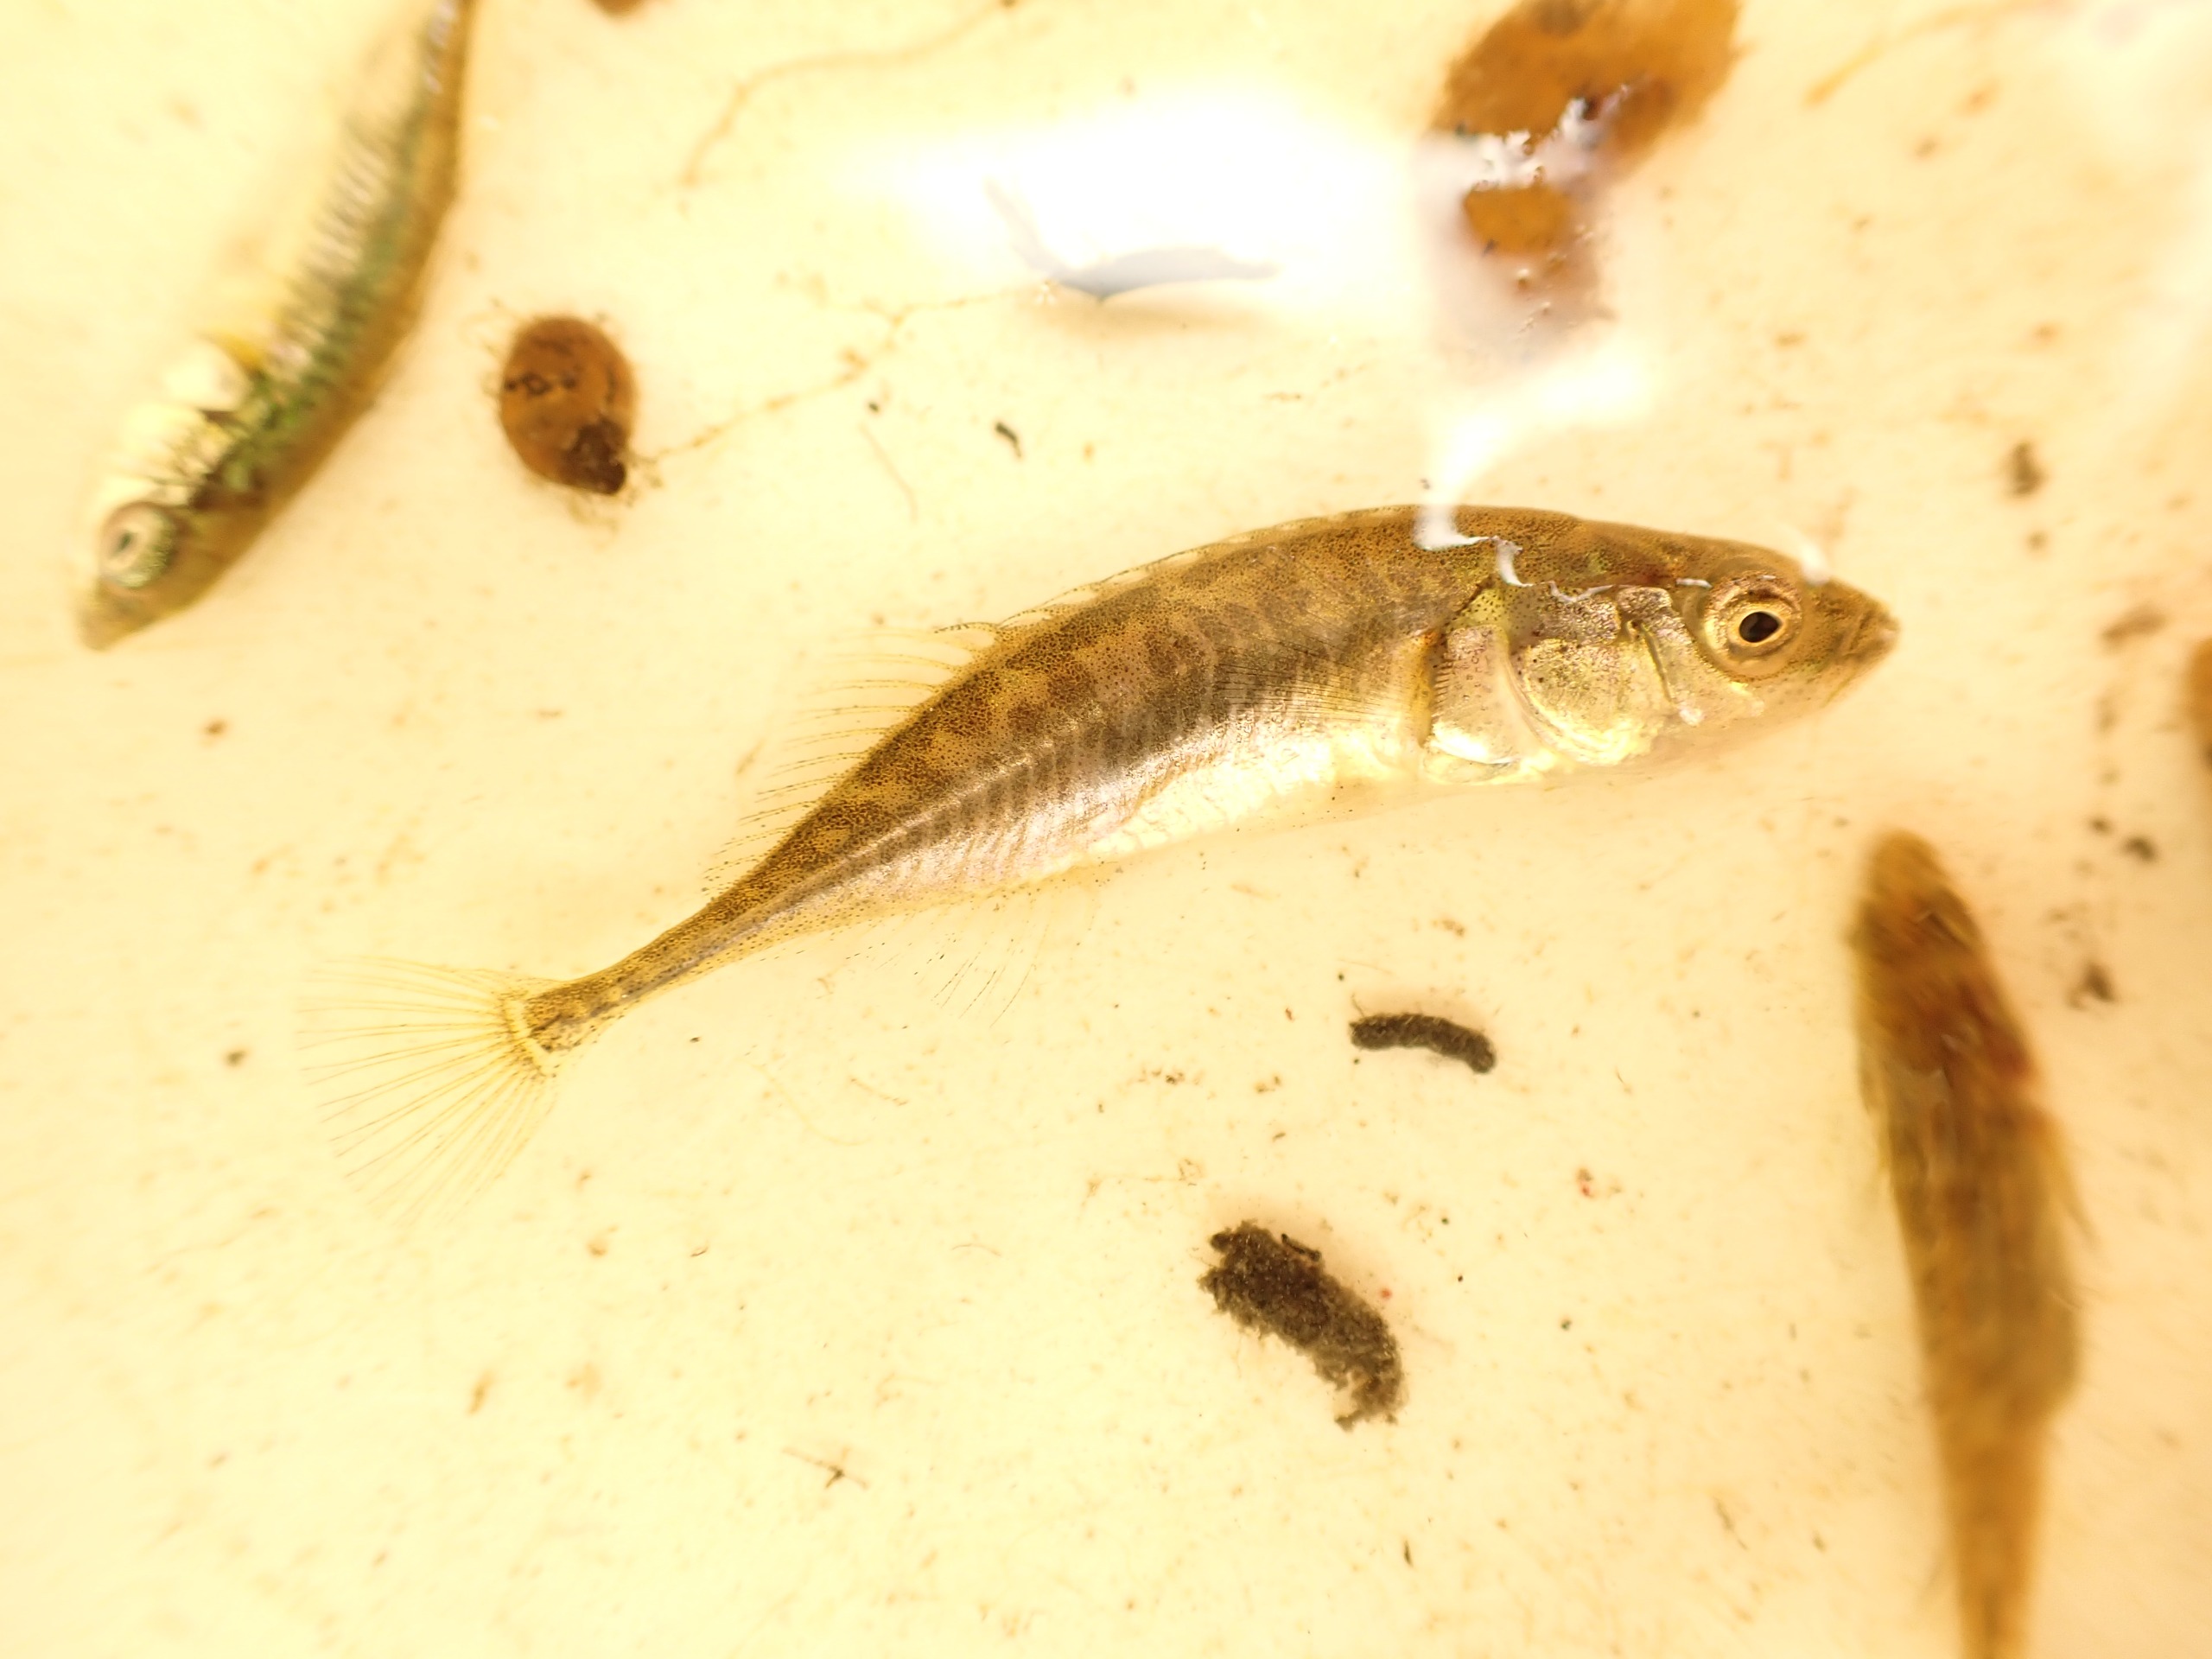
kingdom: Animalia
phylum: Chordata
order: Gasterosteiformes
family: Gasterosteidae
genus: Pungitius
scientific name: Pungitius pungitius
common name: Nipigget hundestejle
